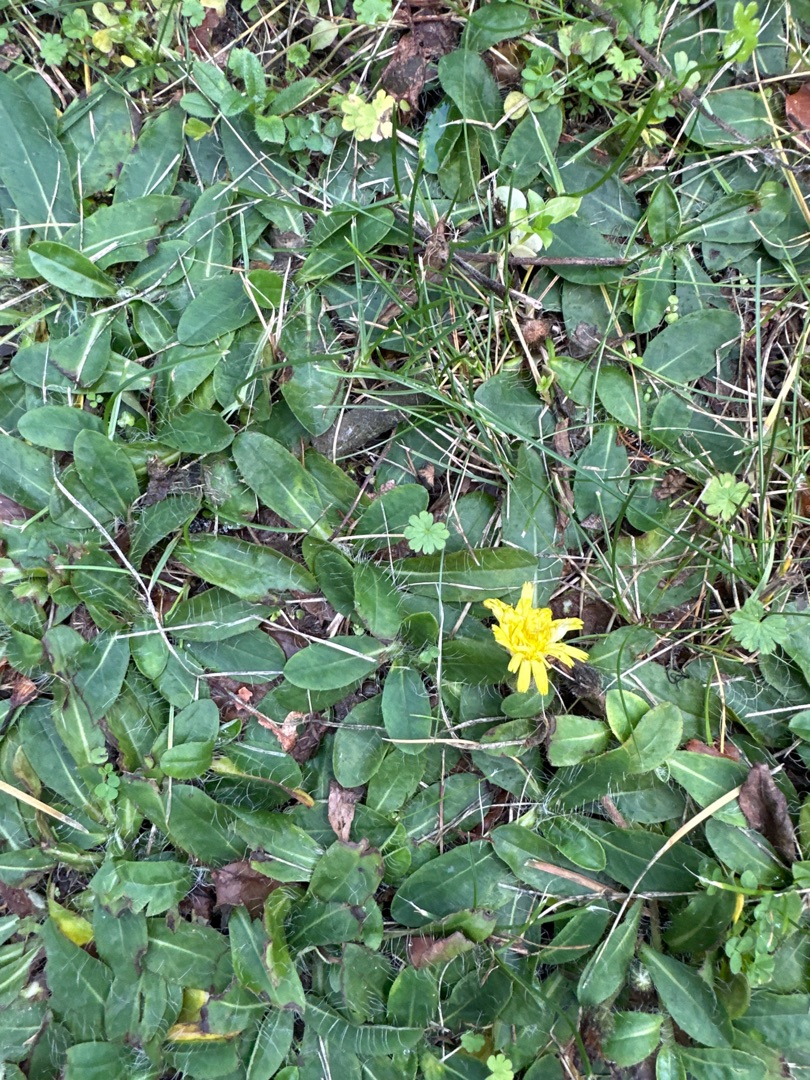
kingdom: Plantae
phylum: Tracheophyta
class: Magnoliopsida
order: Asterales
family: Asteraceae
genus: Pilosella
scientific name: Pilosella officinarum
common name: Håret høgeurt
